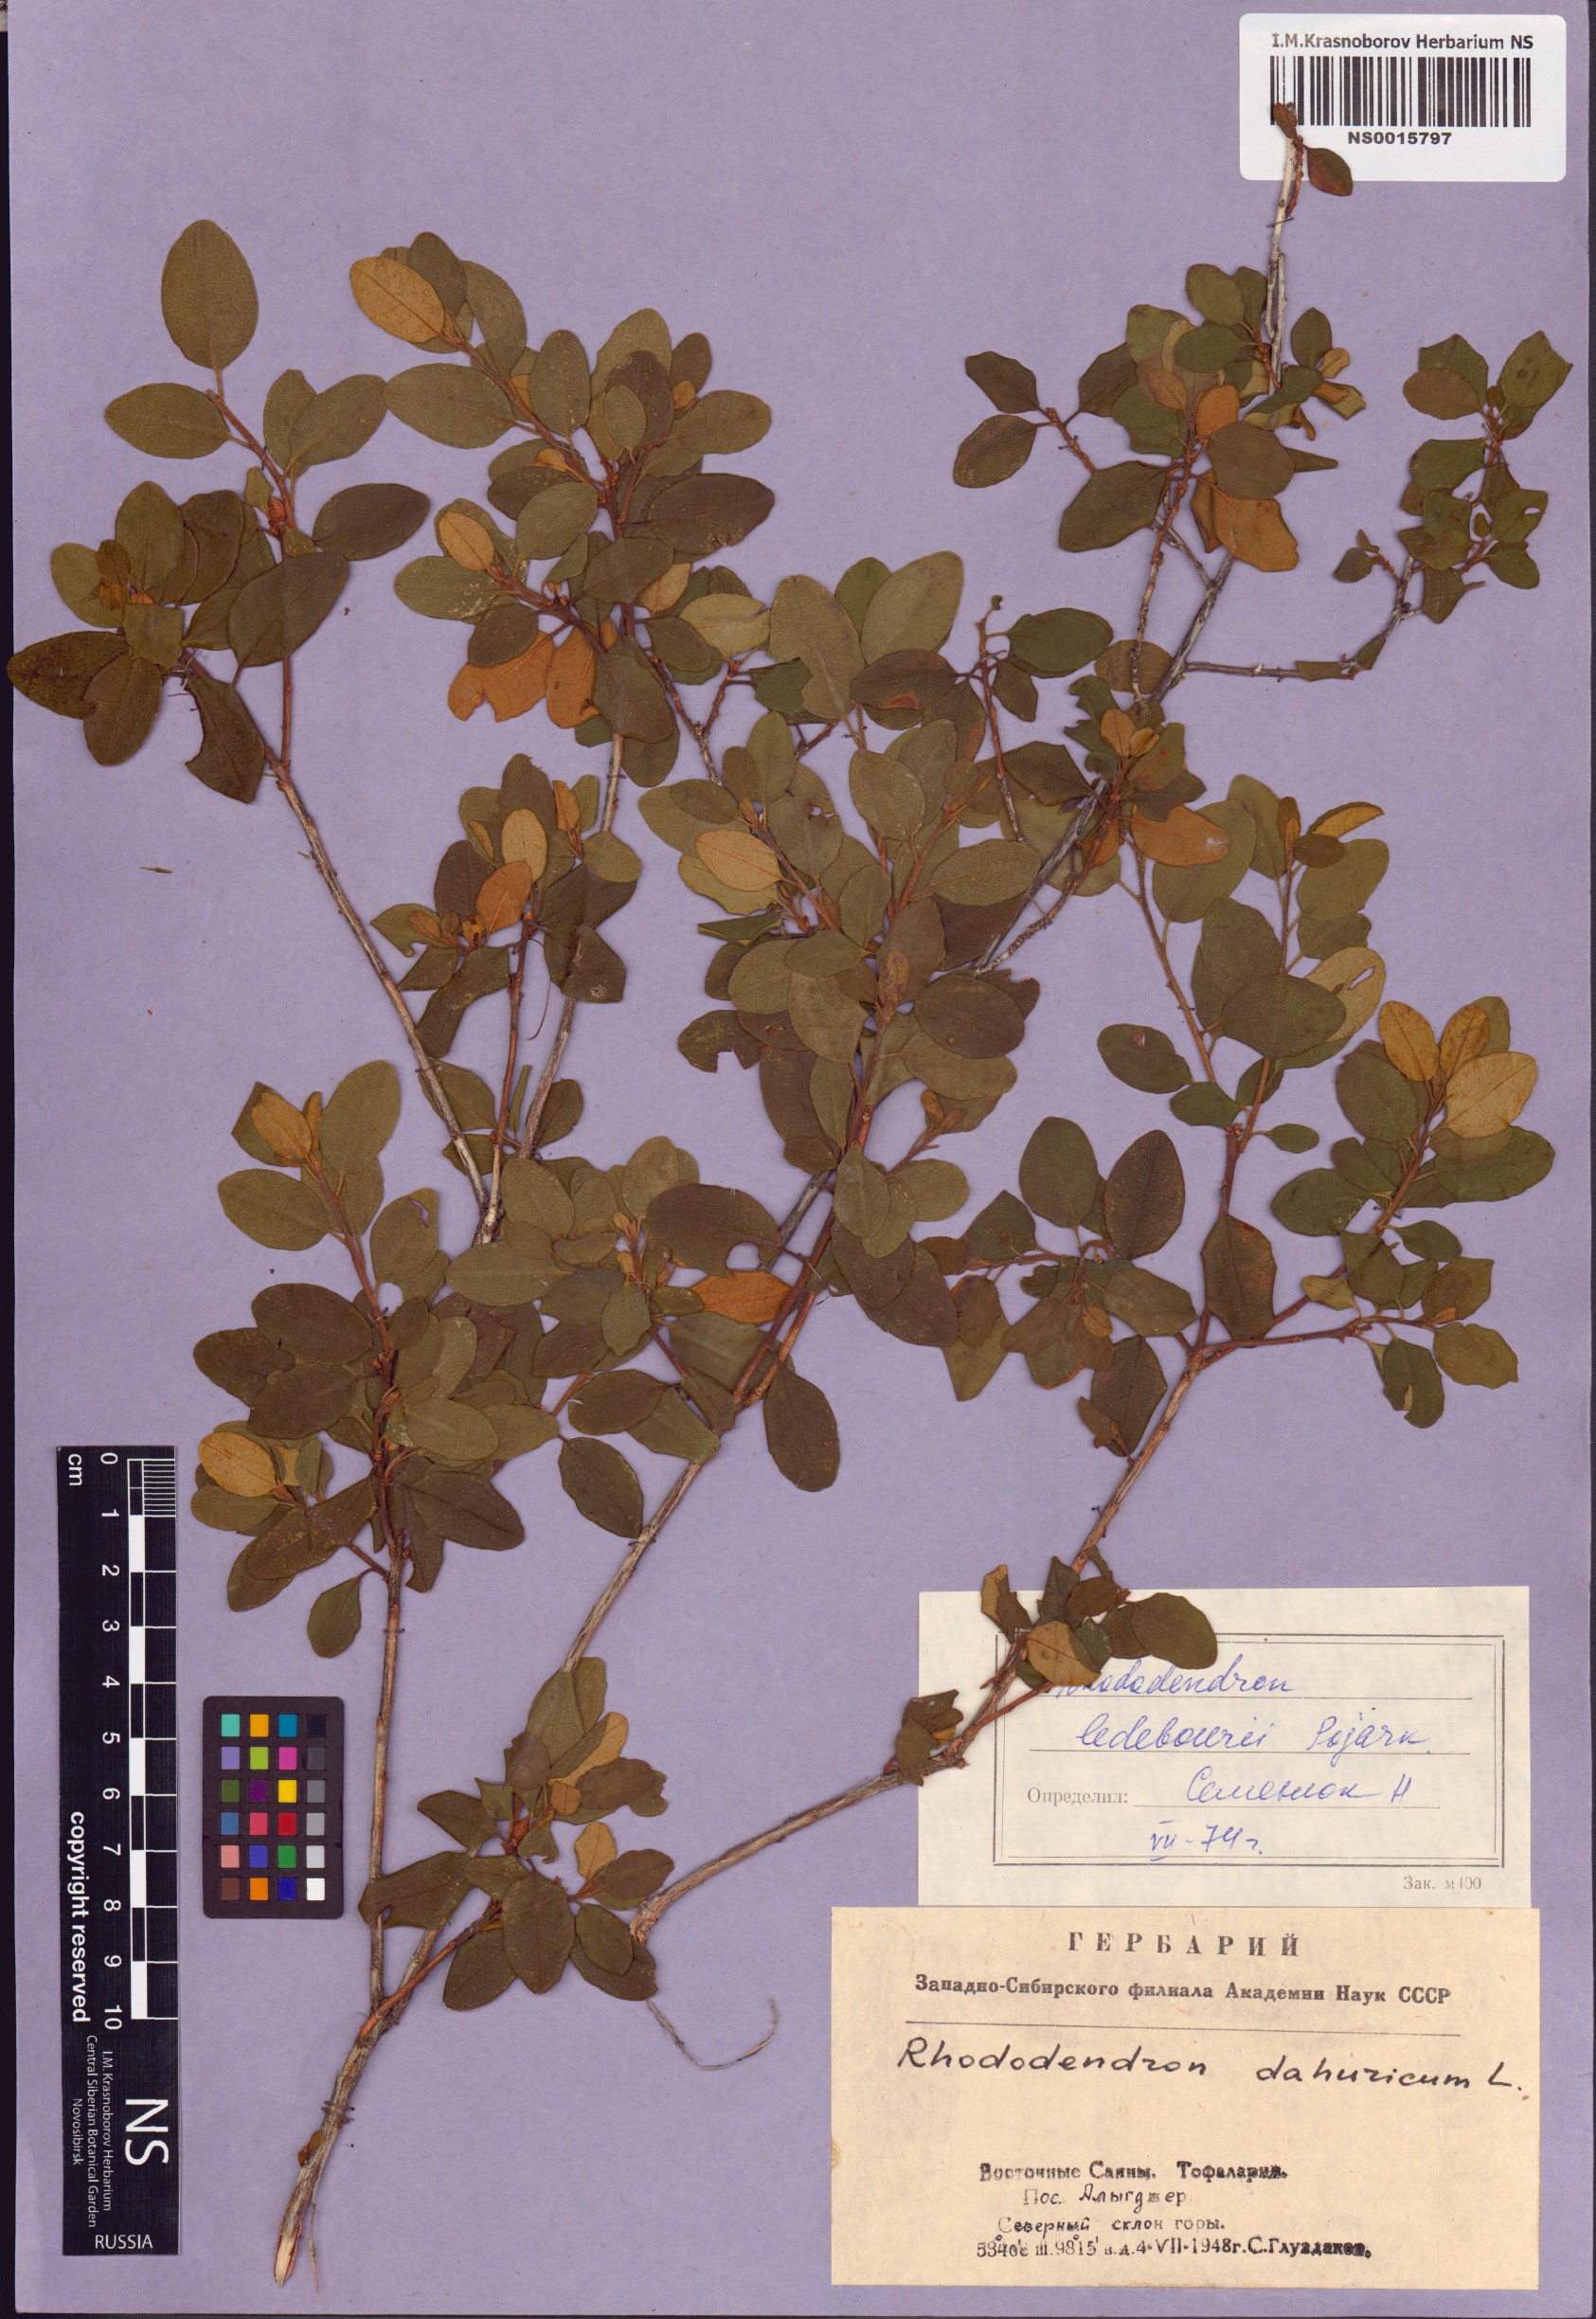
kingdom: Plantae
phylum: Tracheophyta
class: Magnoliopsida
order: Ericales
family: Ericaceae
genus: Rhododendron
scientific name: Rhododendron dauricum
